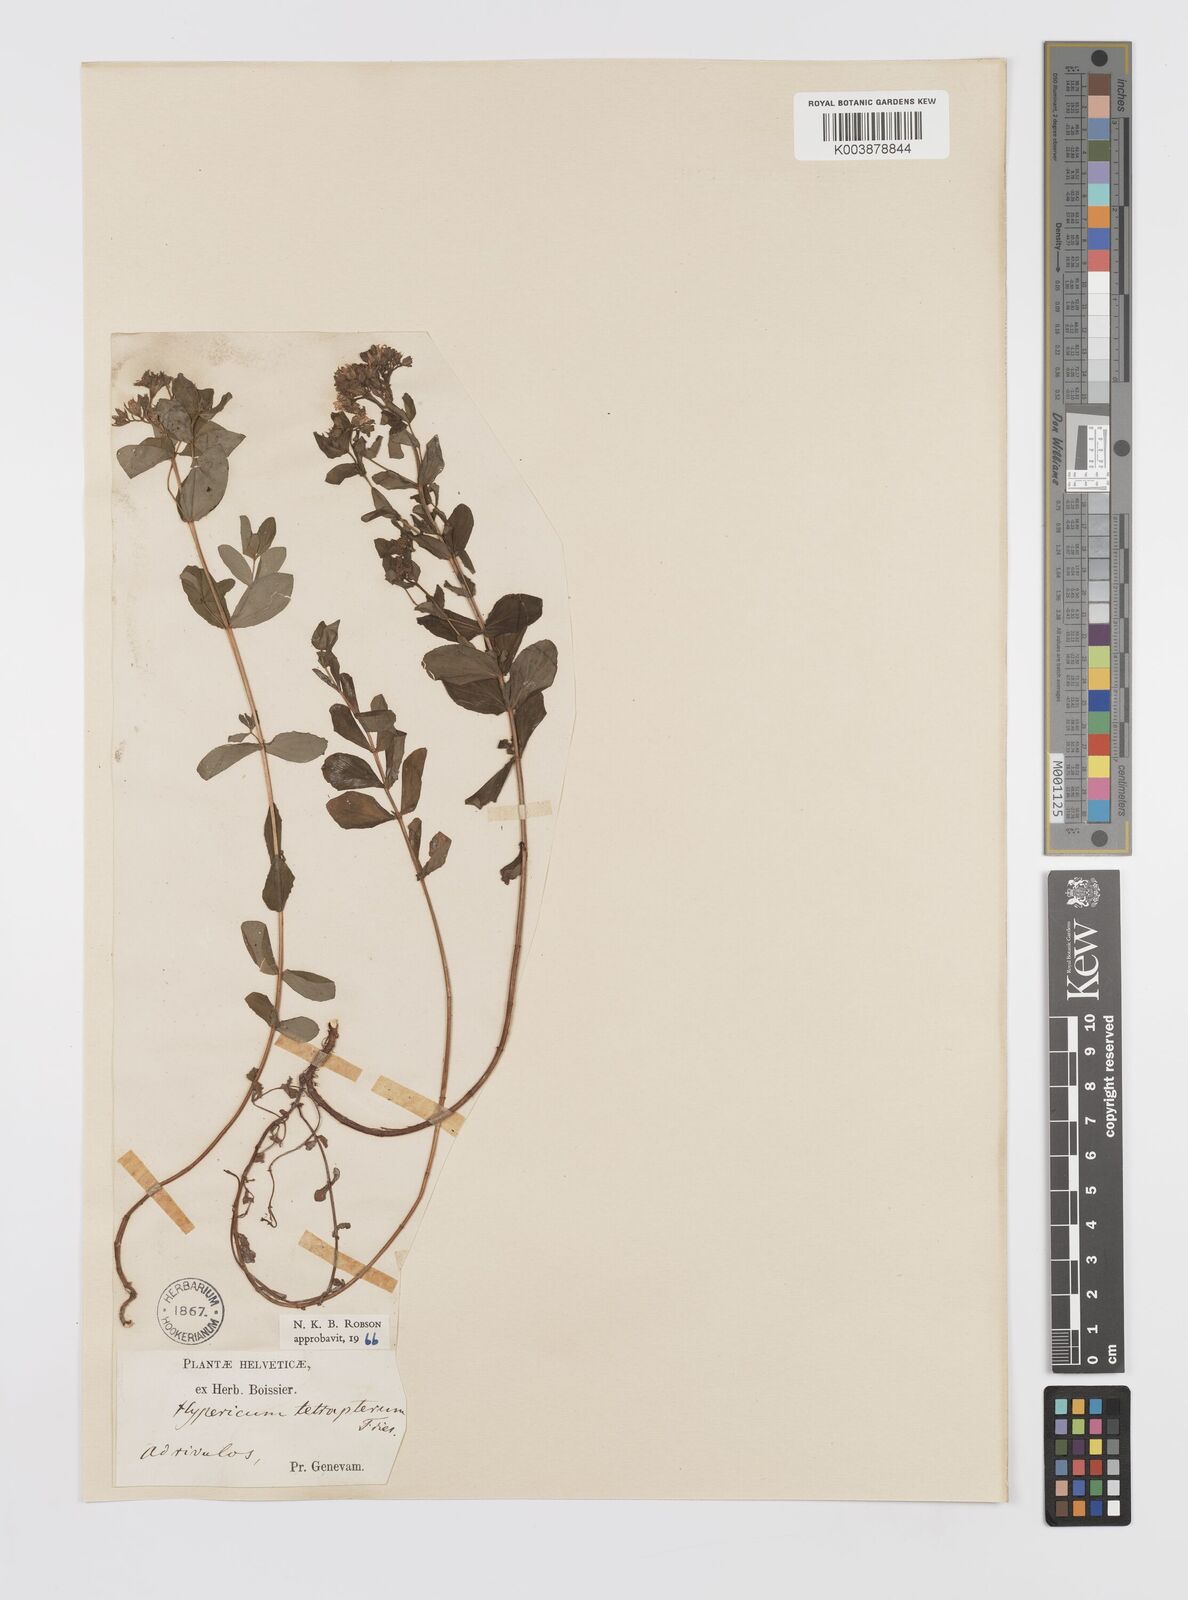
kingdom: Plantae
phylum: Tracheophyta
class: Magnoliopsida
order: Malpighiales
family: Hypericaceae
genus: Hypericum
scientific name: Hypericum tetrapterum
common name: Square-stalked st. john's-wort
